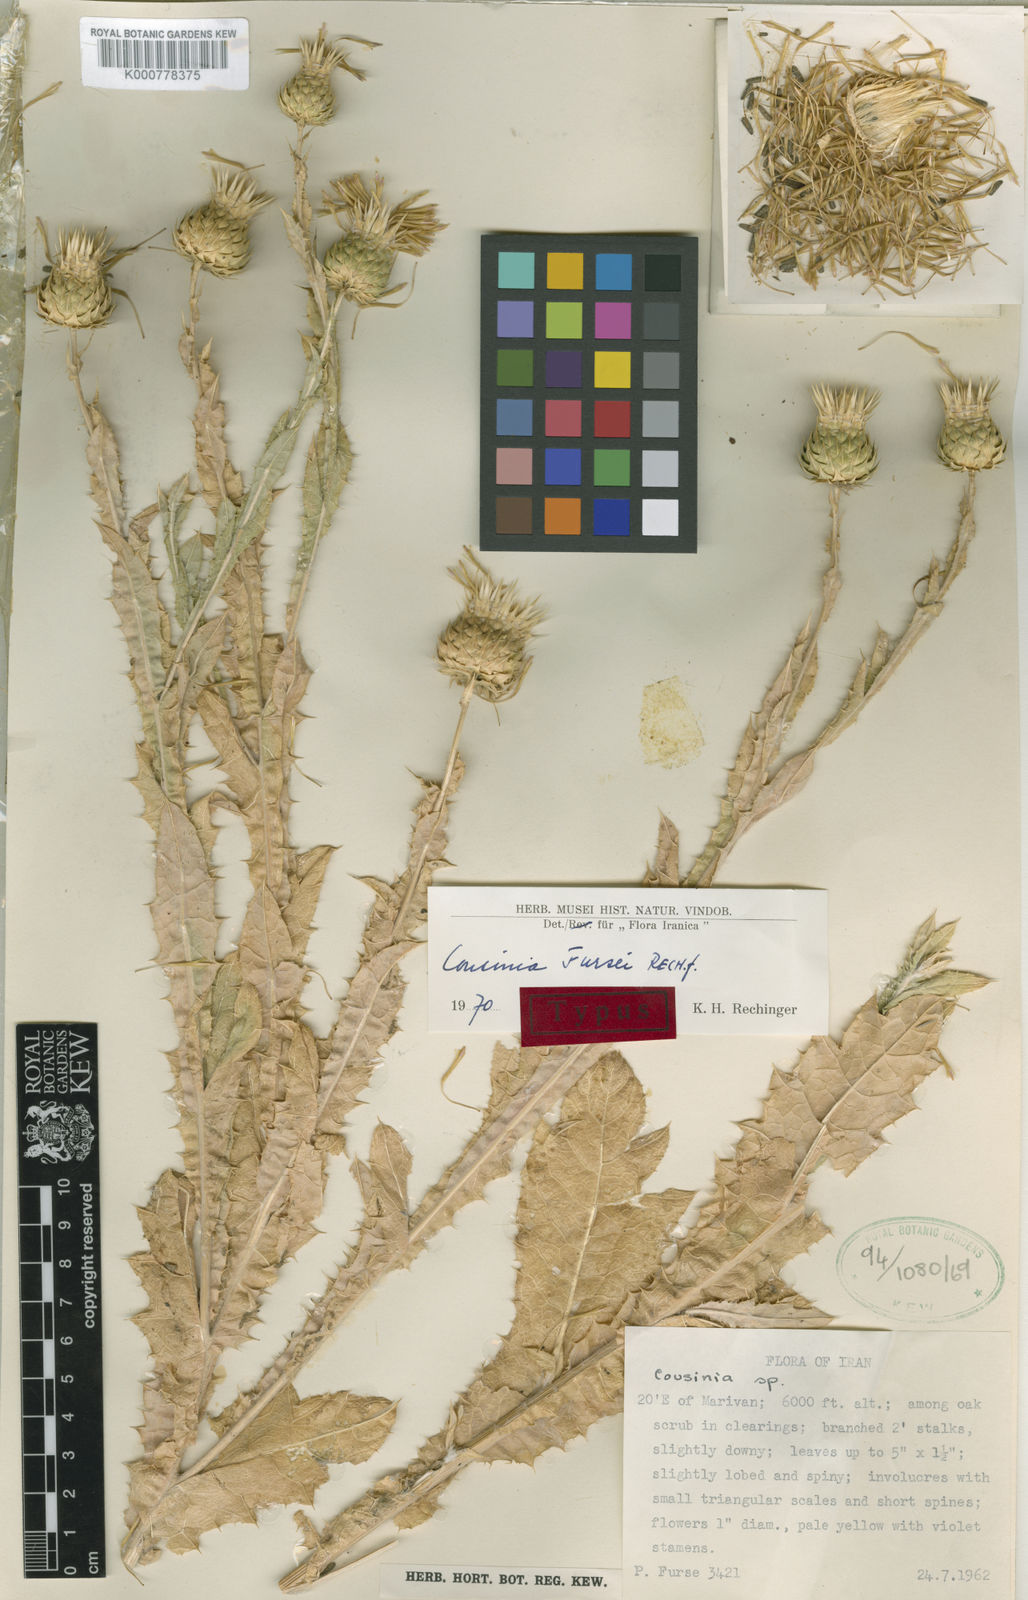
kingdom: Plantae
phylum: Tracheophyta
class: Magnoliopsida
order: Asterales
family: Asteraceae
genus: Cousinia
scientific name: Cousinia fursei
